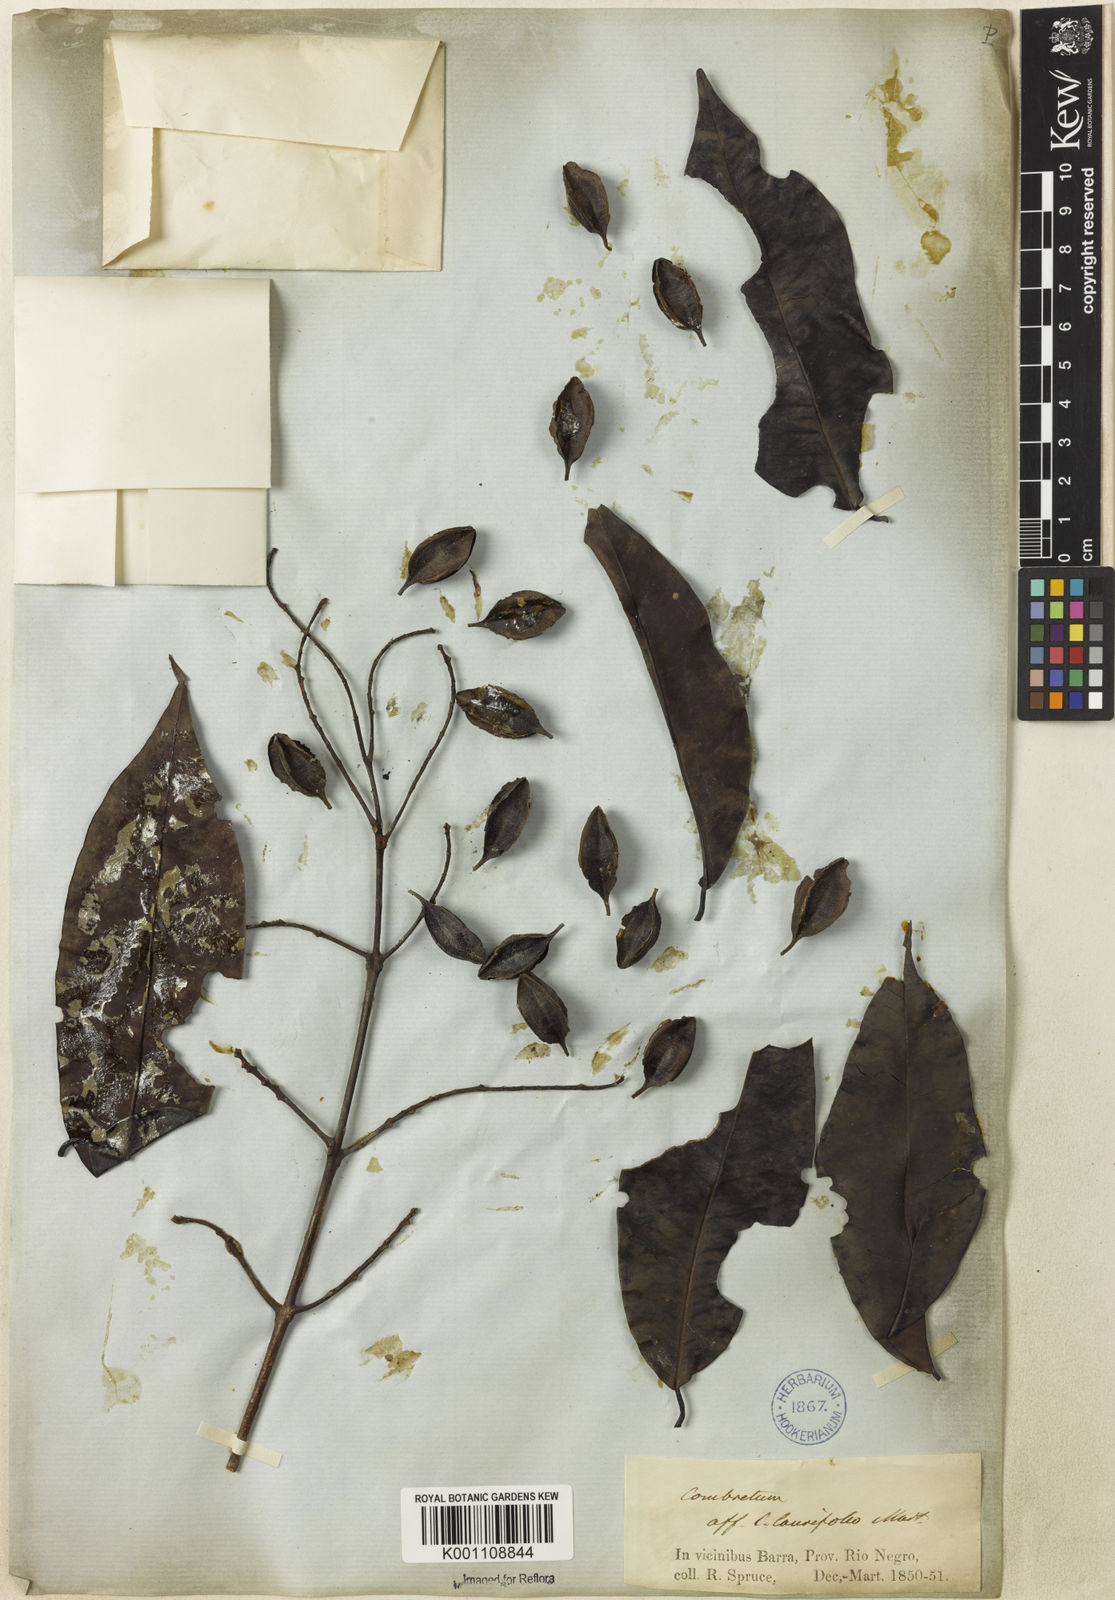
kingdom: Plantae
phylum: Tracheophyta
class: Magnoliopsida
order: Myrtales
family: Combretaceae
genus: Combretum
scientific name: Combretum
